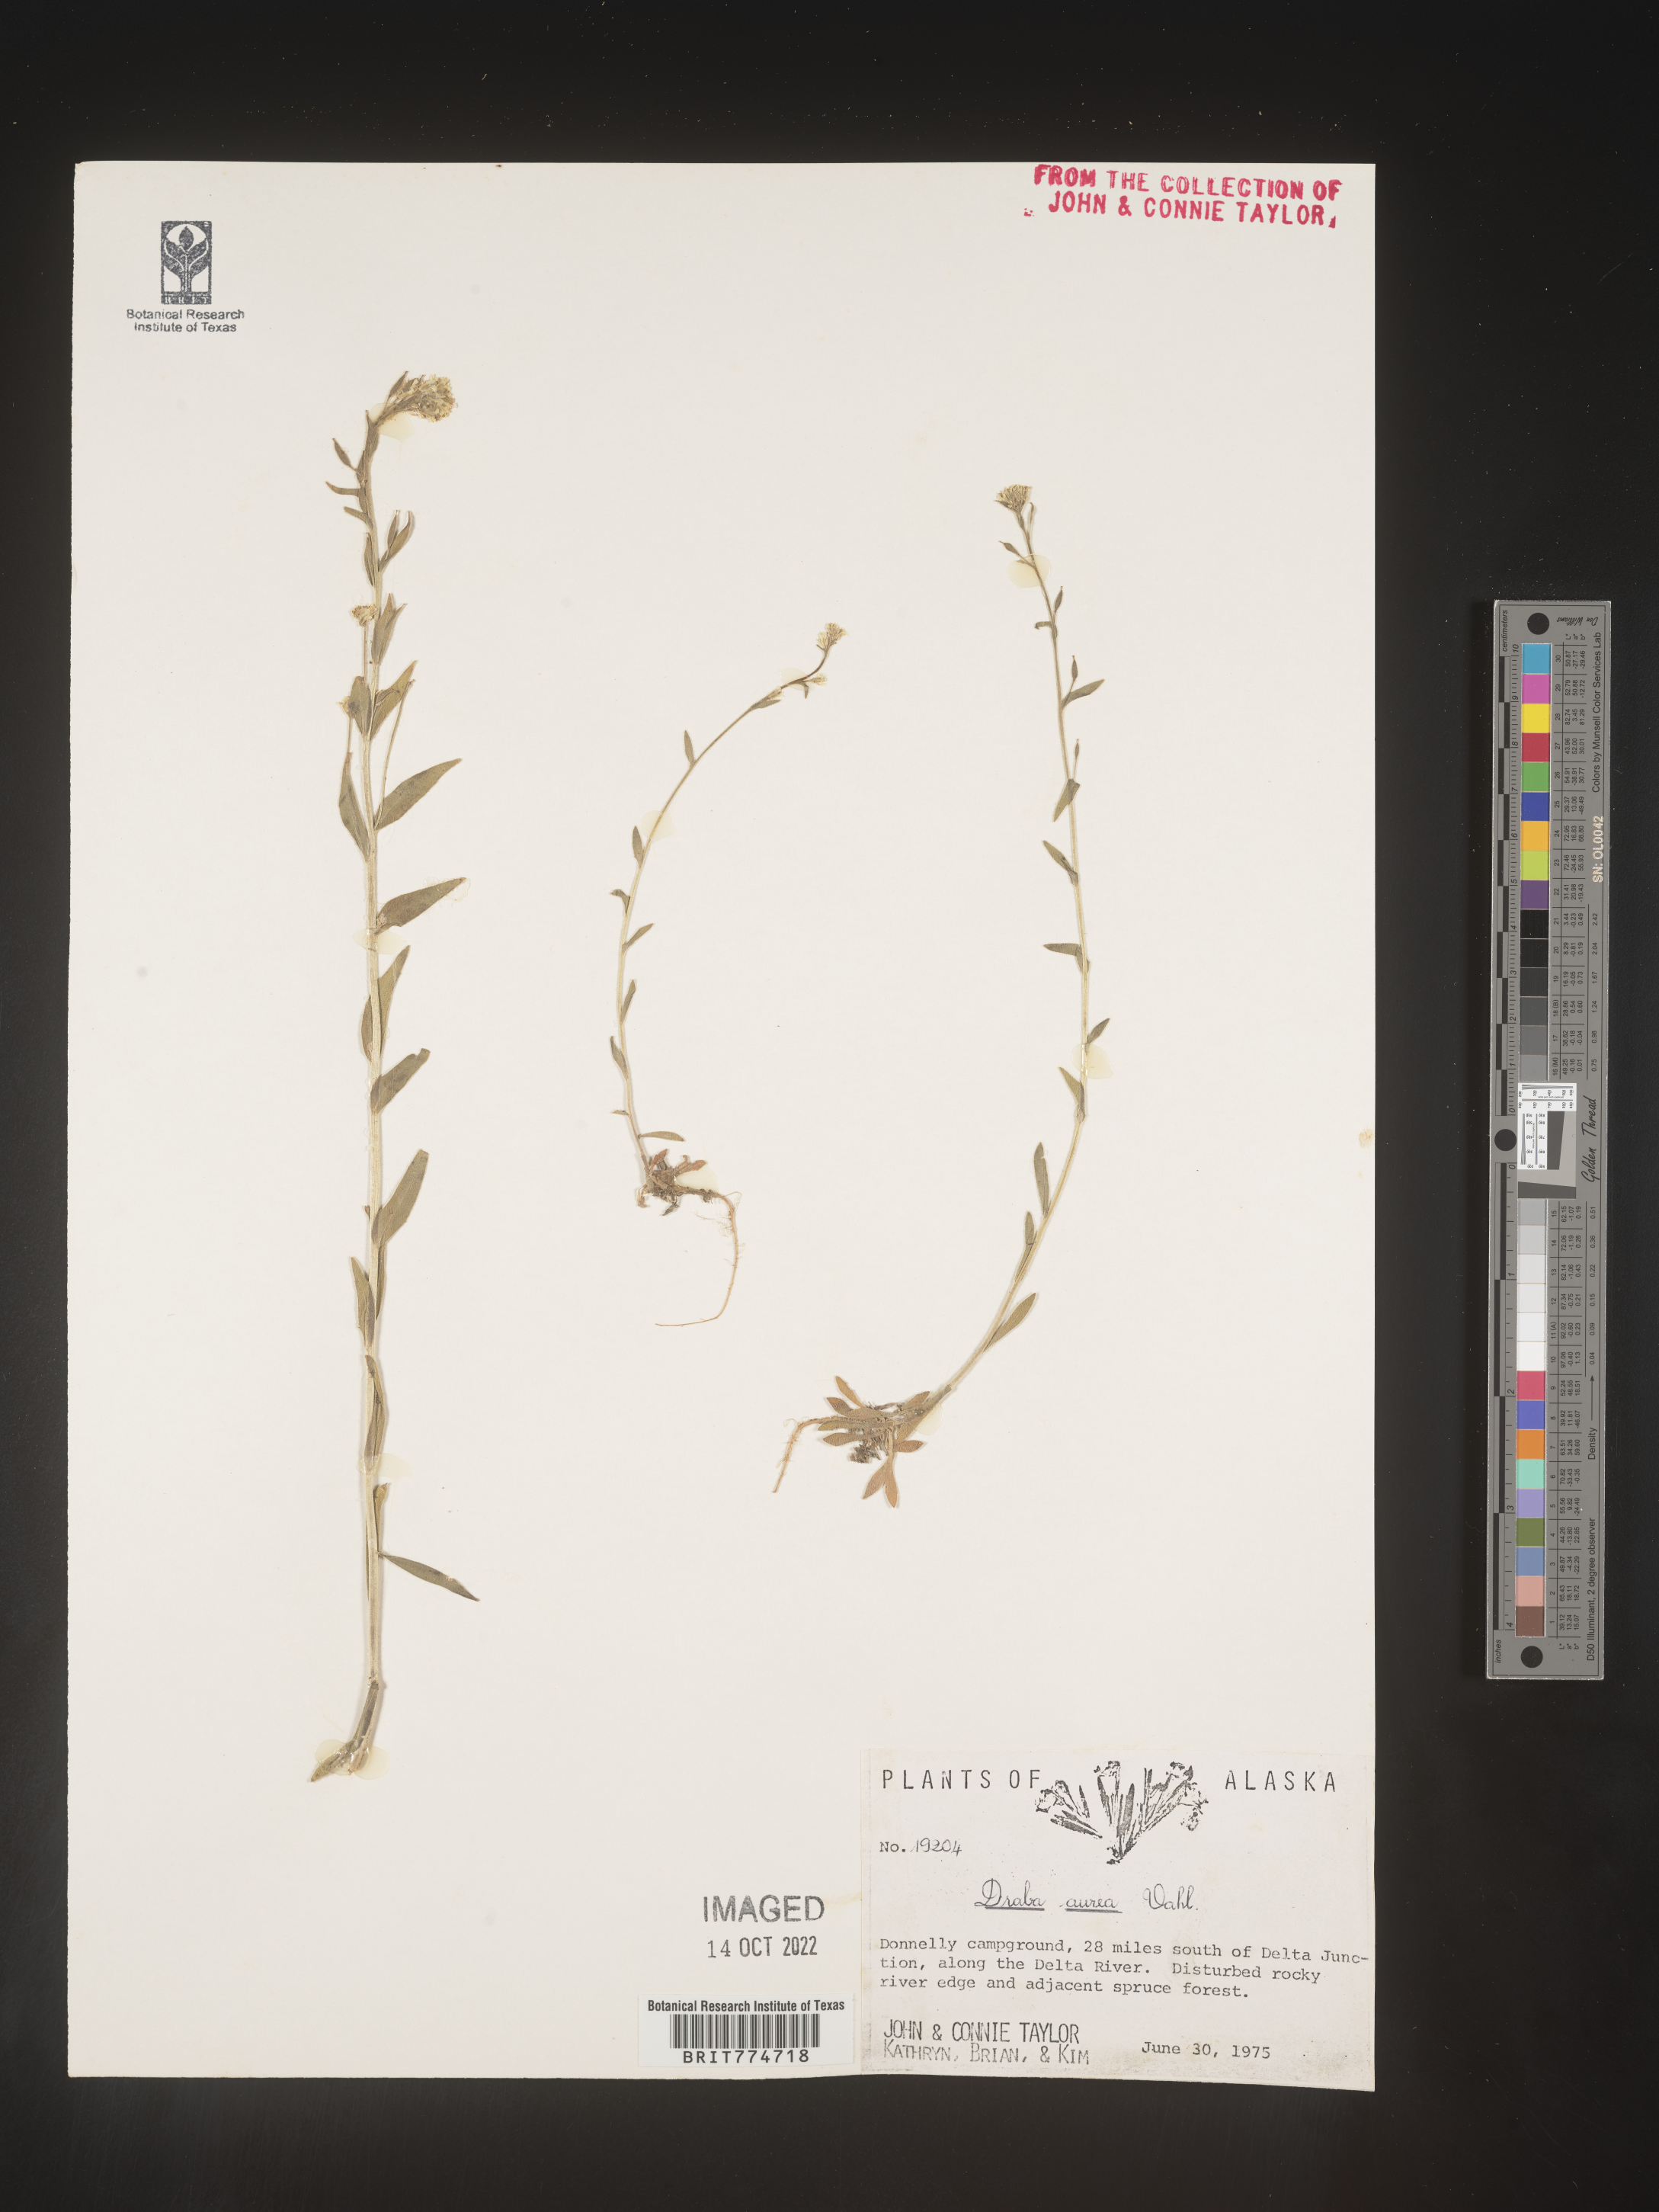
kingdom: Plantae
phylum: Tracheophyta
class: Magnoliopsida
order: Brassicales
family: Brassicaceae
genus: Draba
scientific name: Draba
